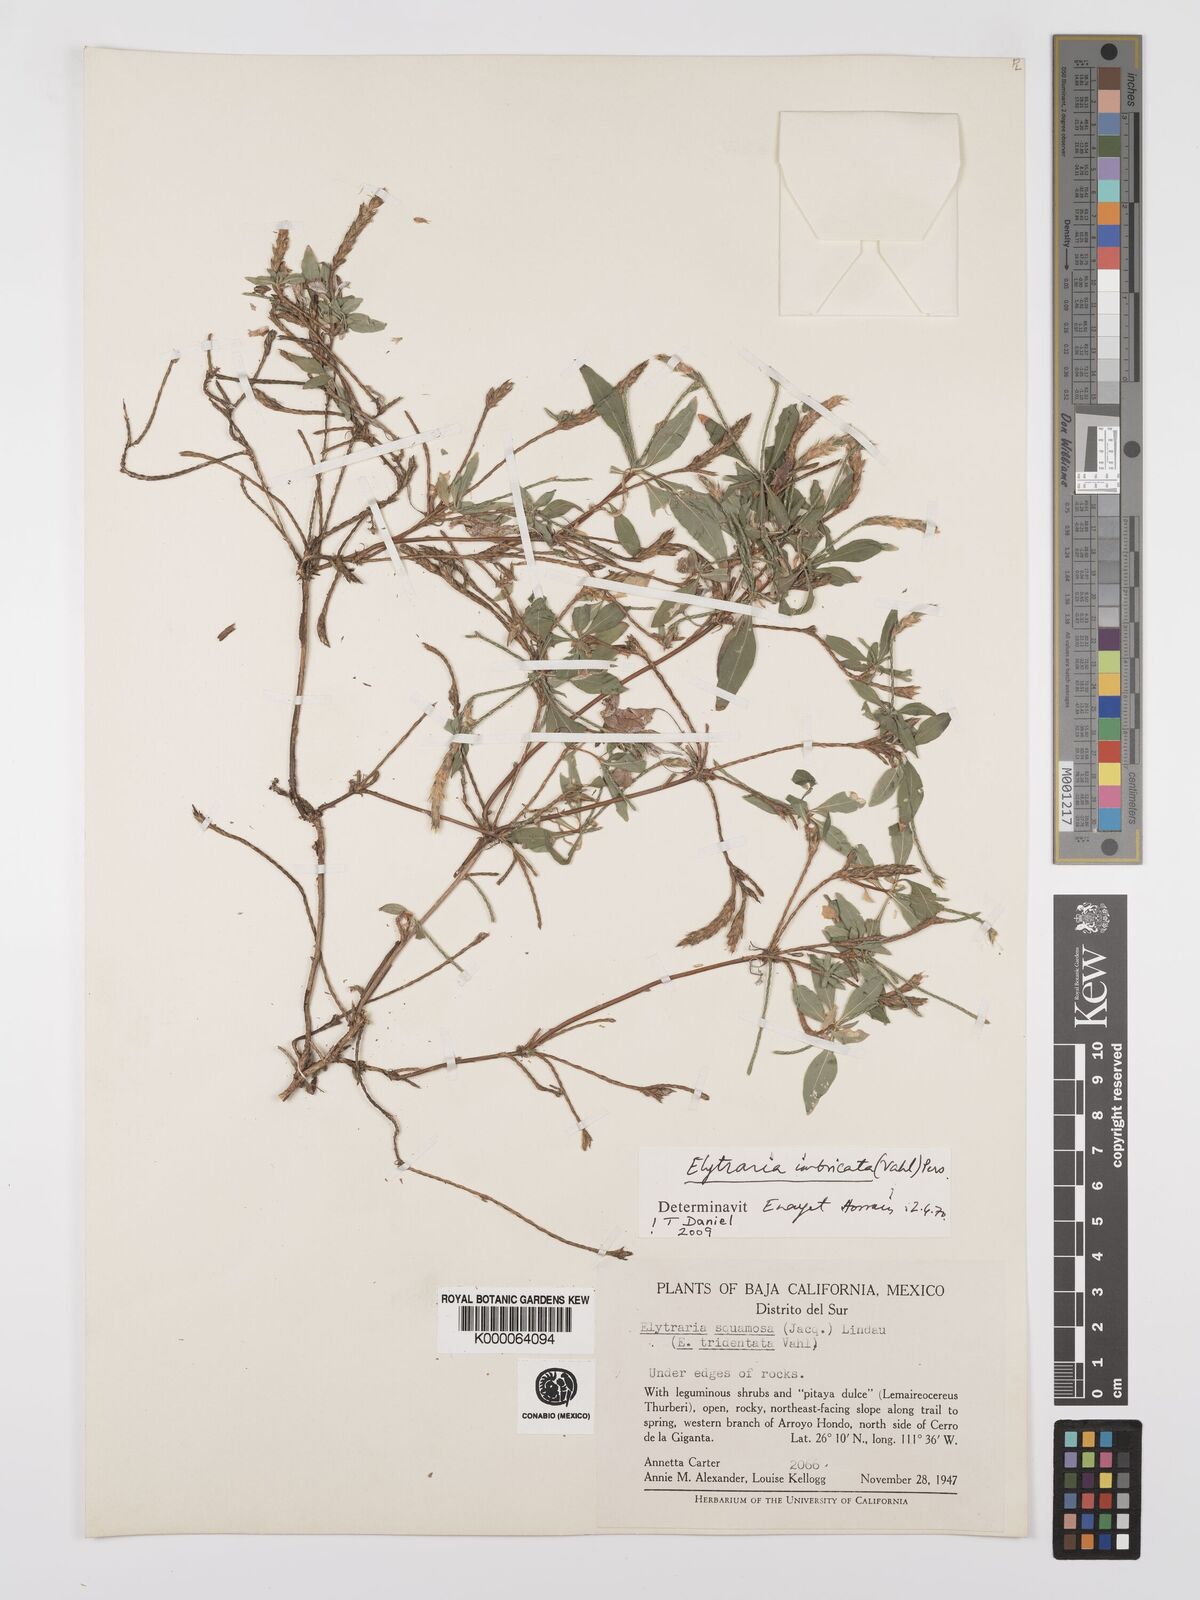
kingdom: Plantae
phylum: Tracheophyta
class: Magnoliopsida
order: Lamiales
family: Acanthaceae
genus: Elytraria
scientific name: Elytraria imbricata
